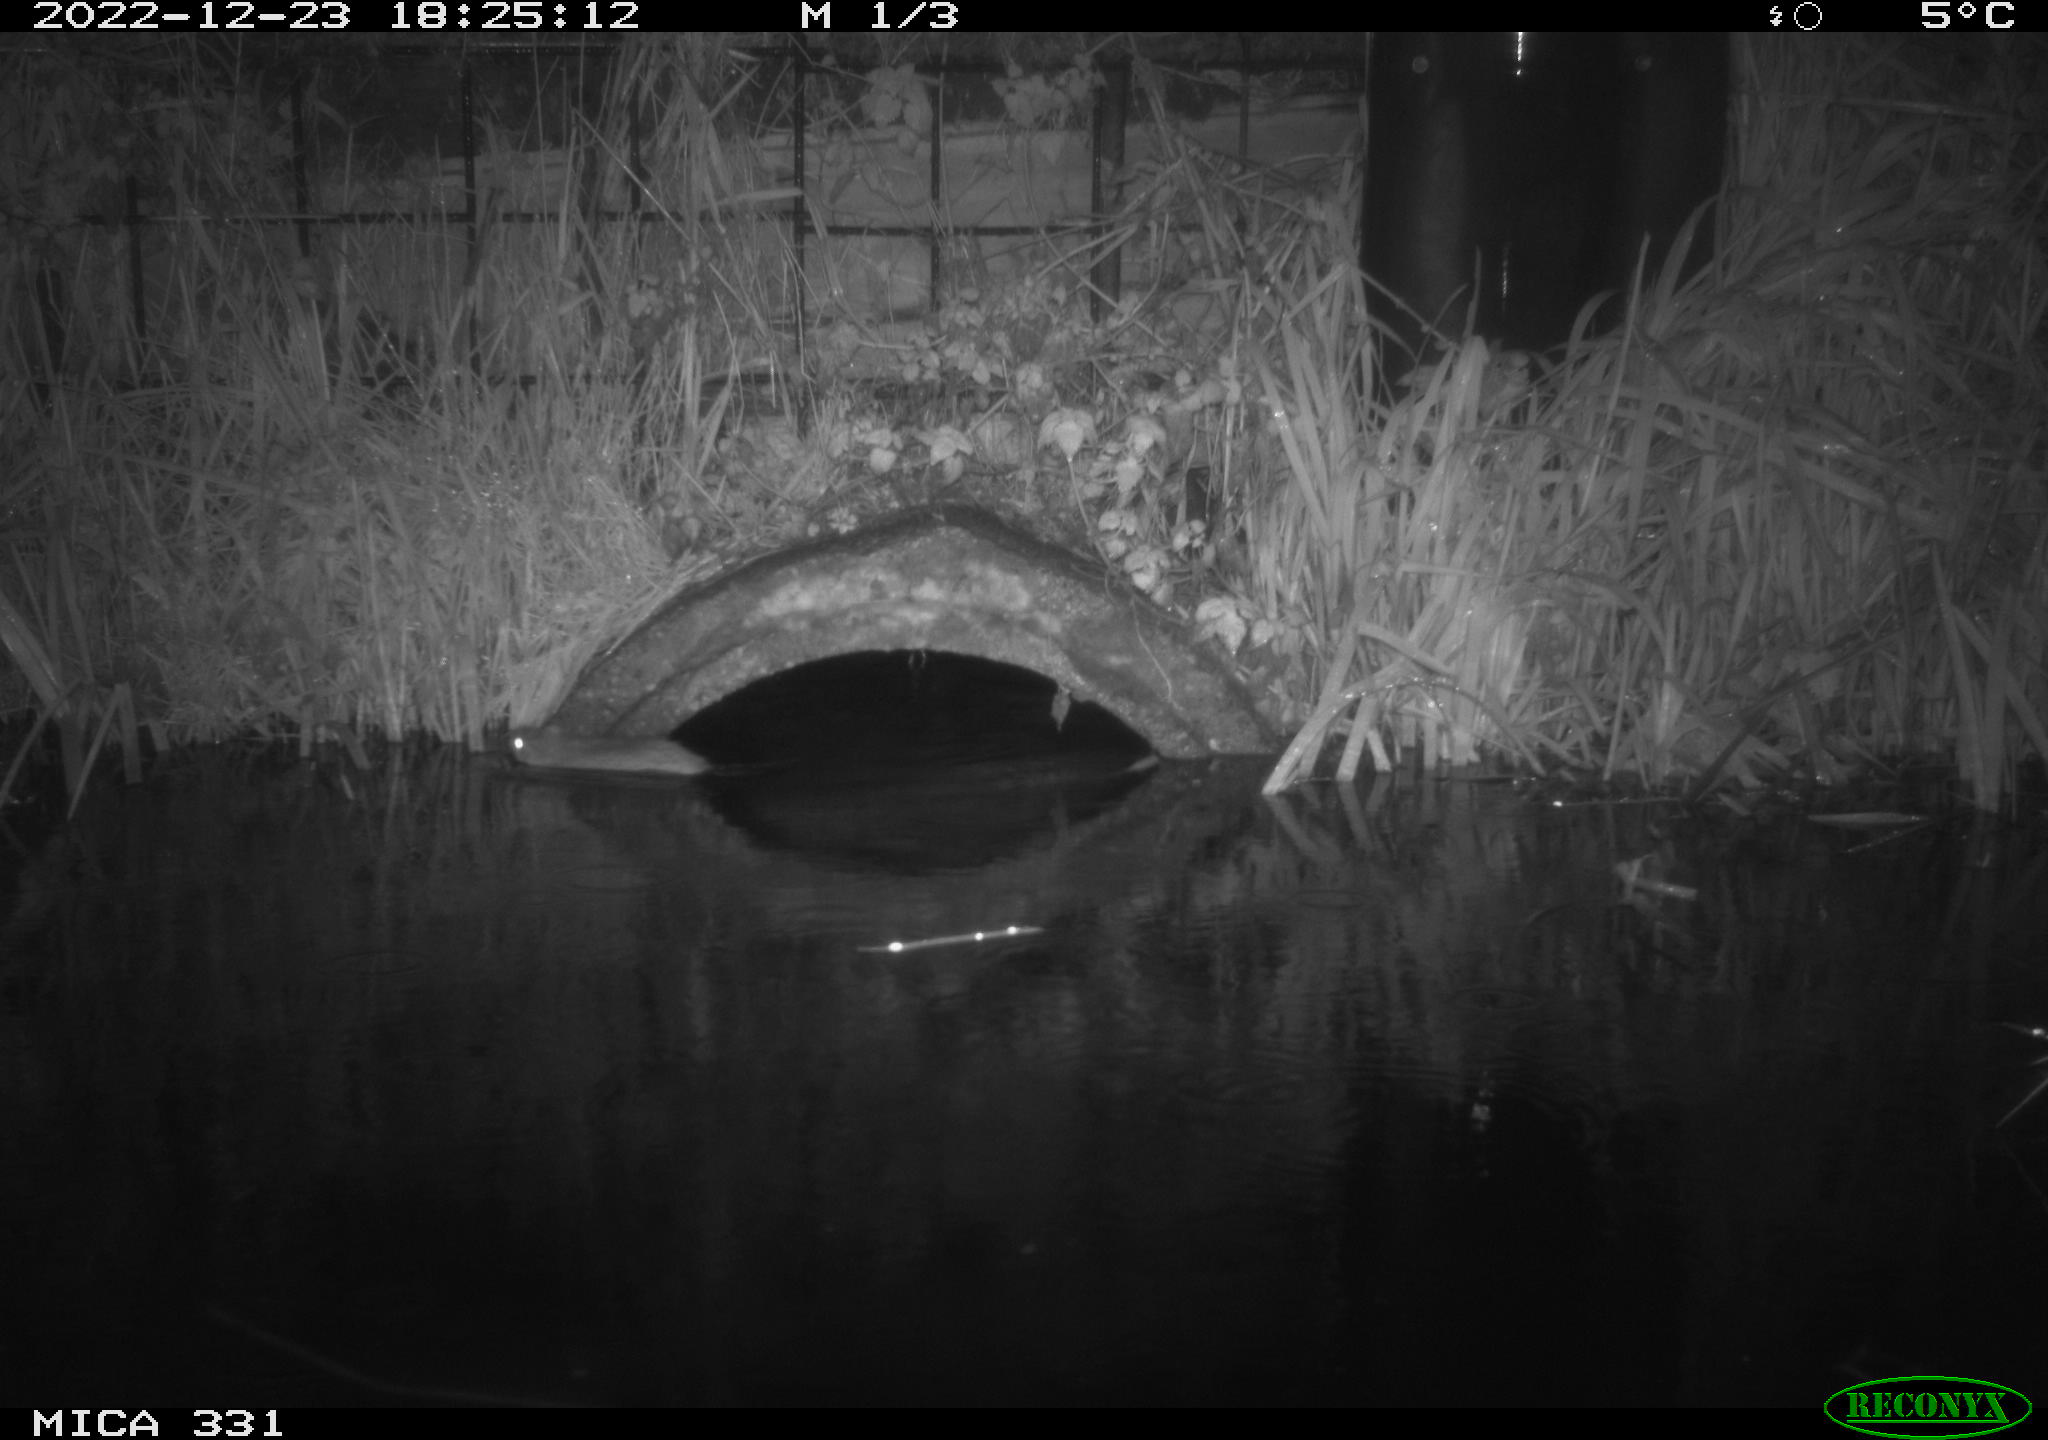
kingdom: Animalia
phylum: Chordata
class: Mammalia
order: Rodentia
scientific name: Rodentia
